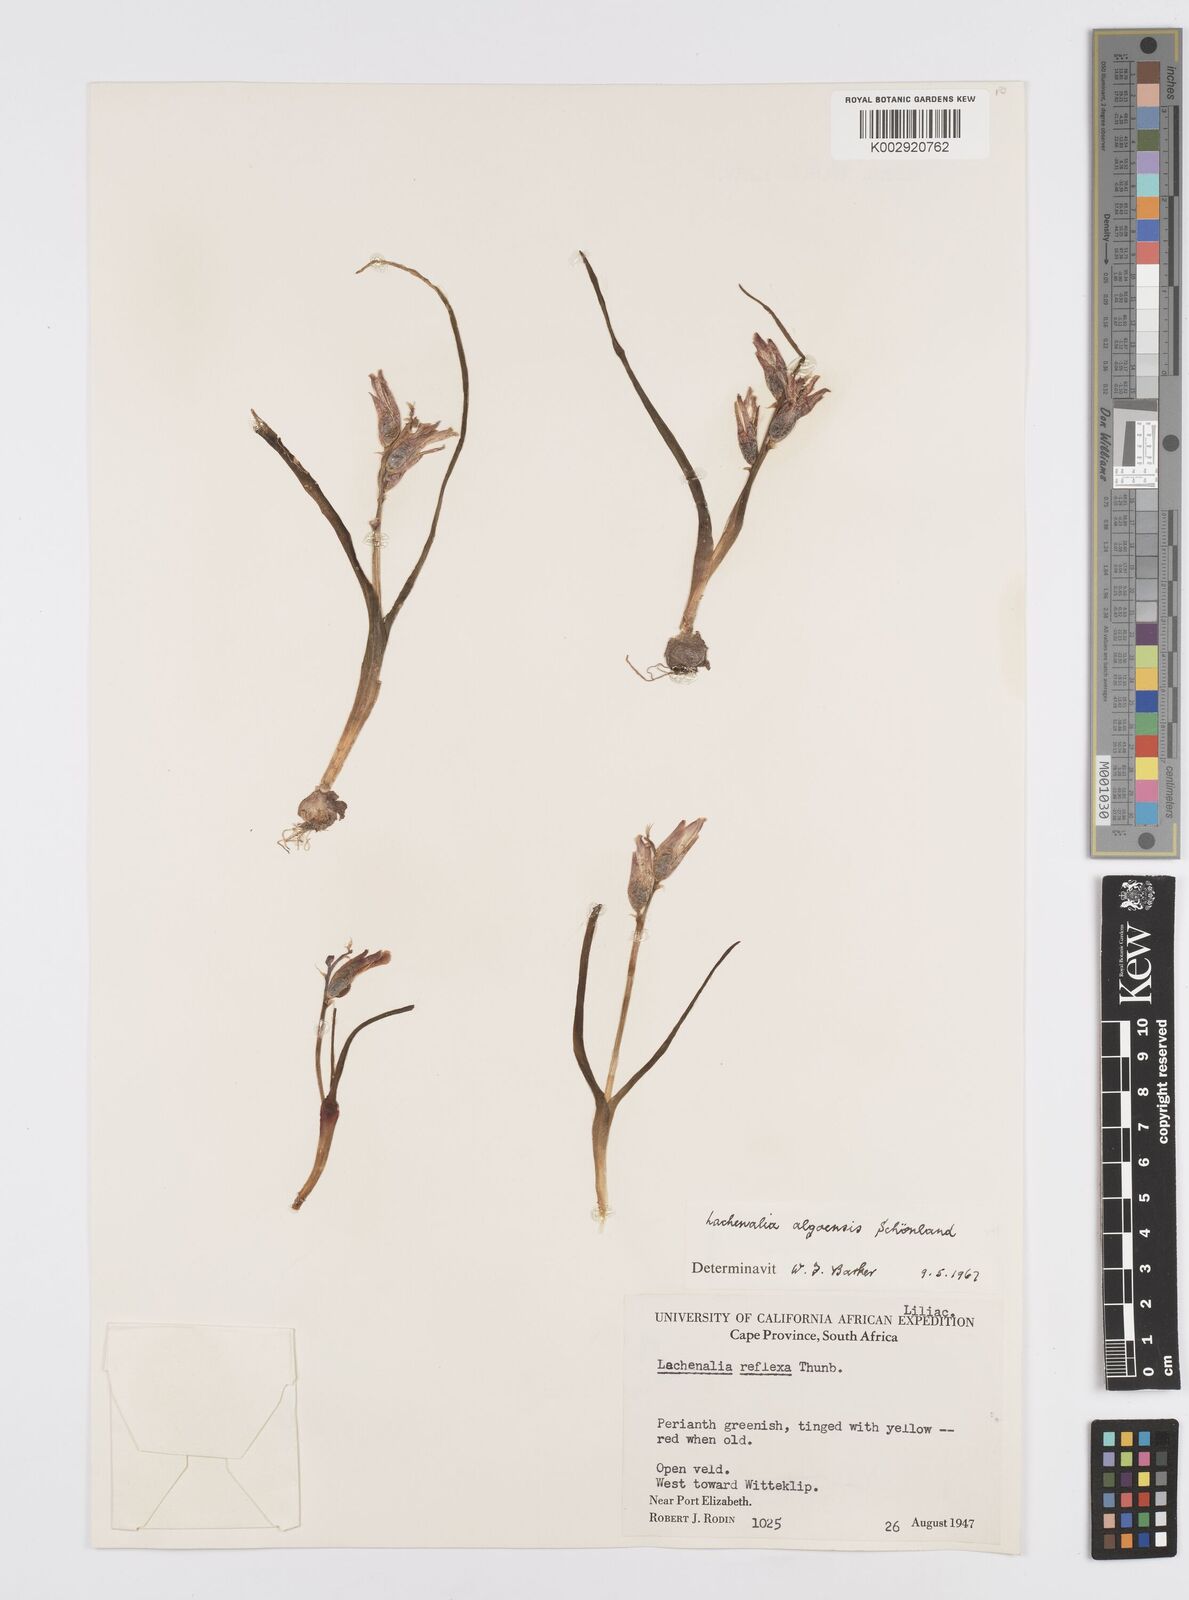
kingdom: Plantae
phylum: Tracheophyta
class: Liliopsida
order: Asparagales
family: Asparagaceae
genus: Lachenalia
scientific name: Lachenalia algoensis
